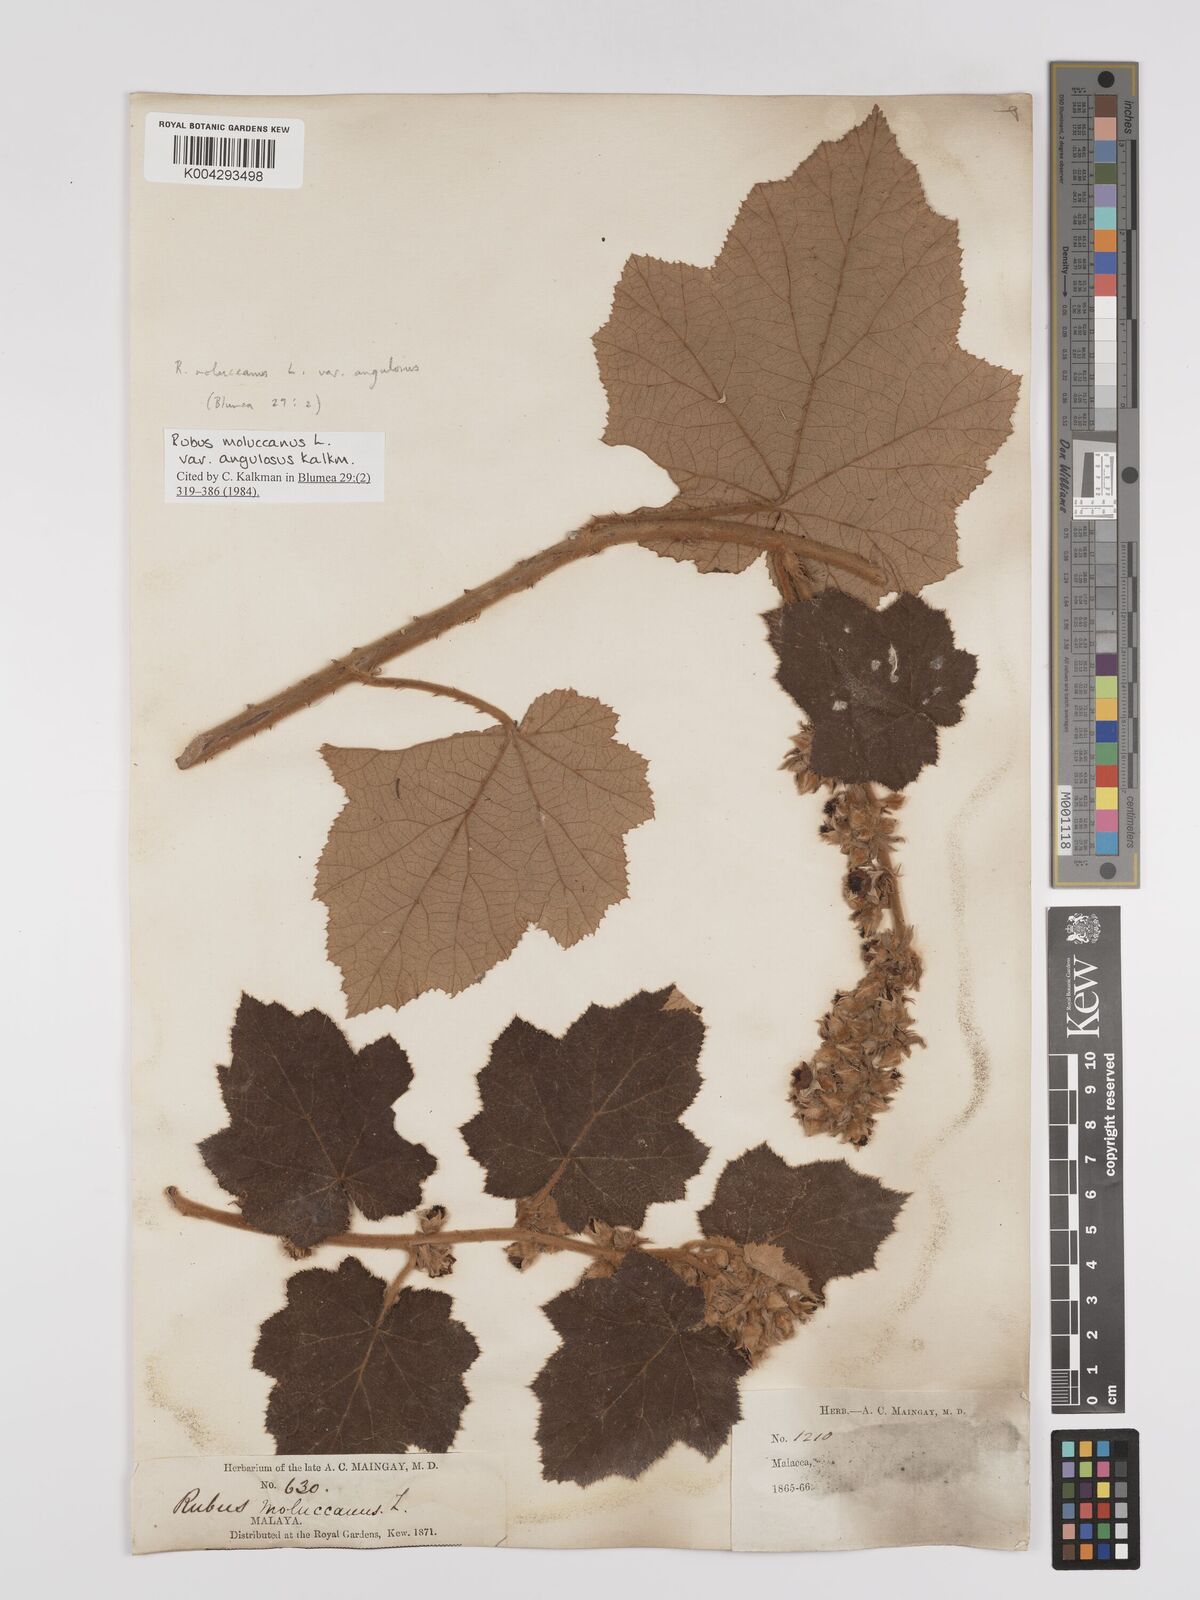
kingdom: Plantae
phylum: Tracheophyta
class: Magnoliopsida
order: Rosales
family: Rosaceae
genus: Rubus
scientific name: Rubus moluccanus
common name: Wild raspberry
